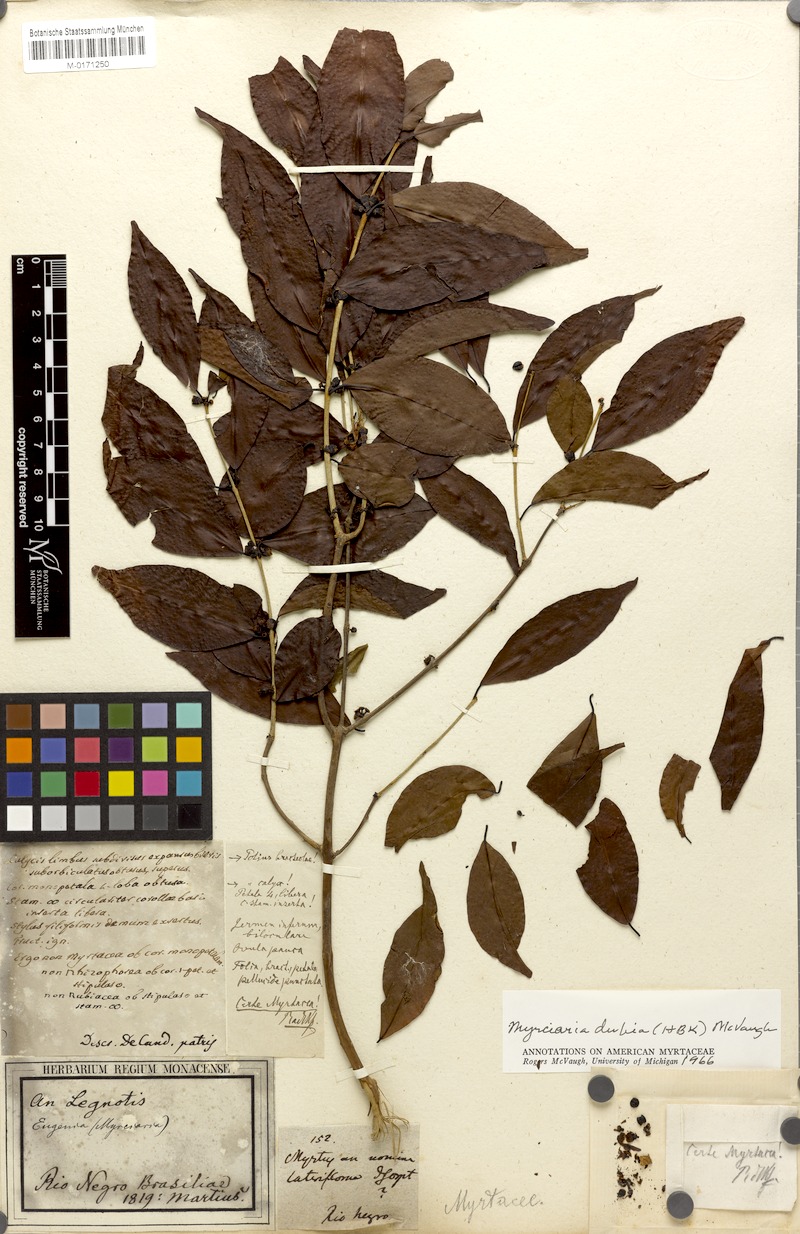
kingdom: Plantae
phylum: Tracheophyta
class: Magnoliopsida
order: Myrtales
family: Myrtaceae
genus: Myrciaria
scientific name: Myrciaria dubia
